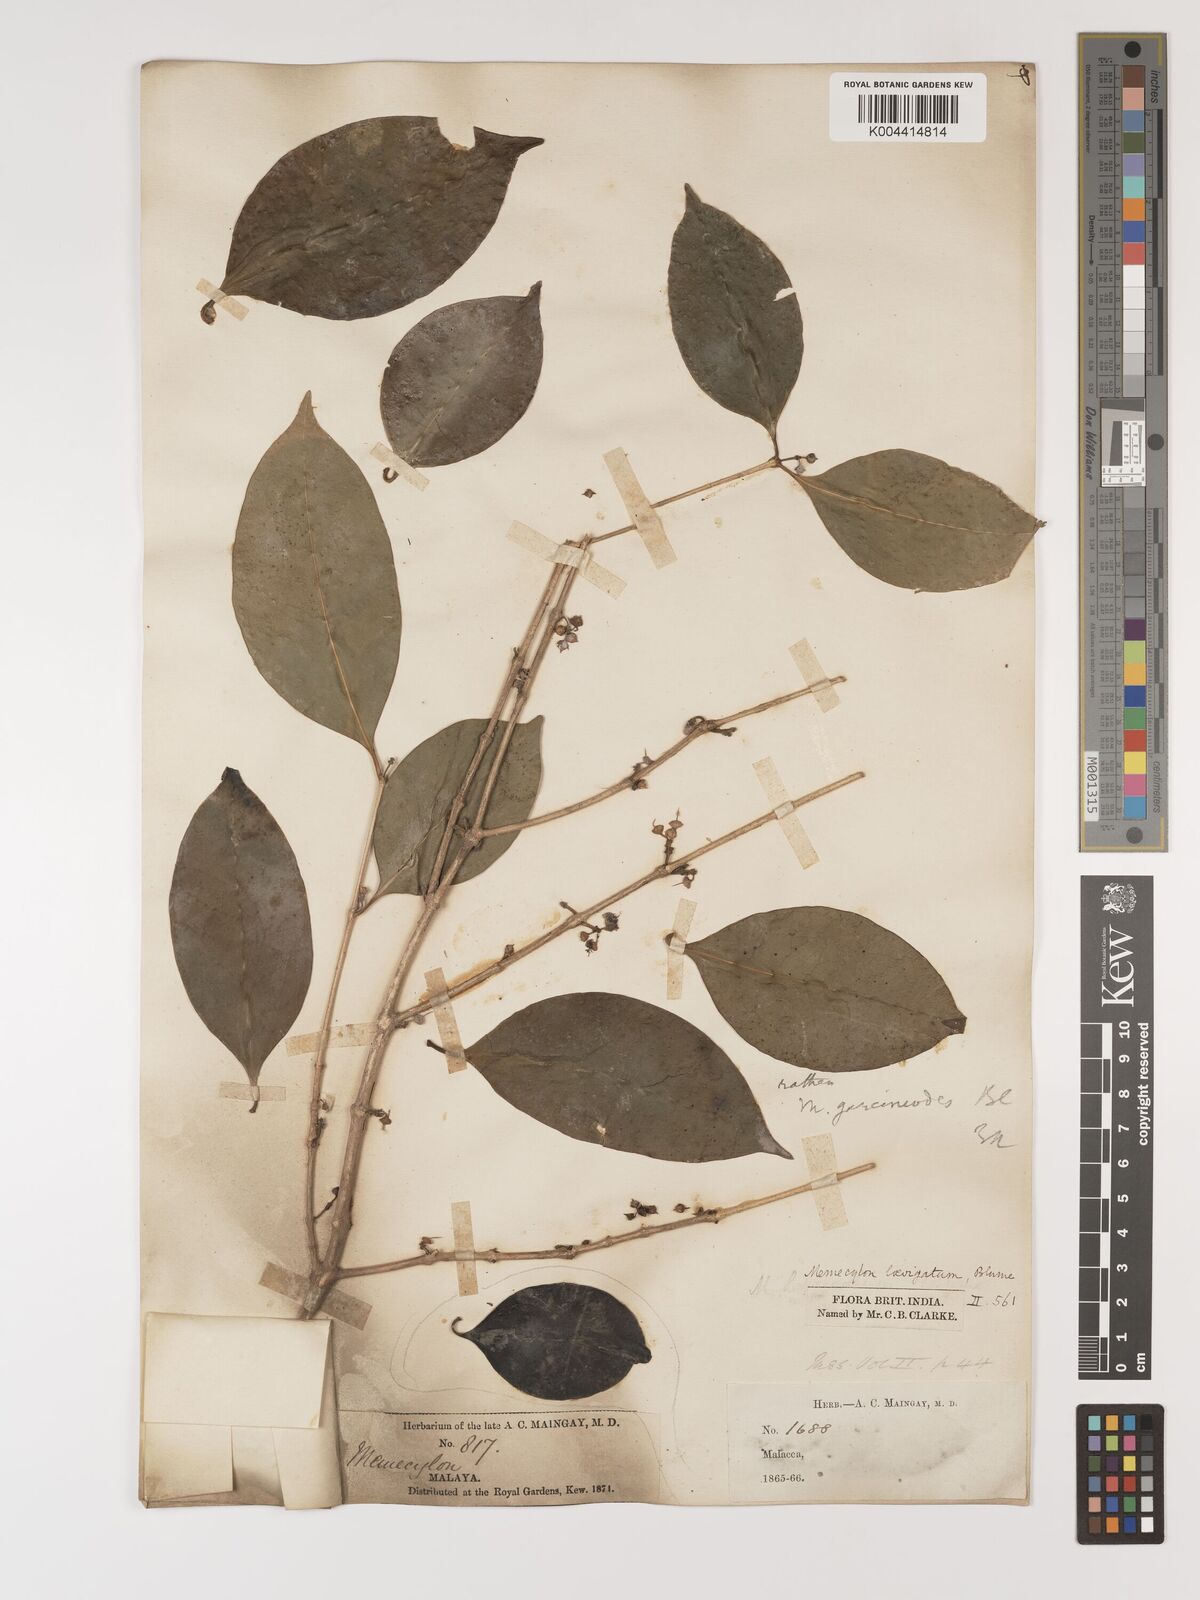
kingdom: Plantae
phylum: Tracheophyta
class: Magnoliopsida
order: Myrtales
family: Melastomataceae
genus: Memecylon
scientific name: Memecylon cantleyi
